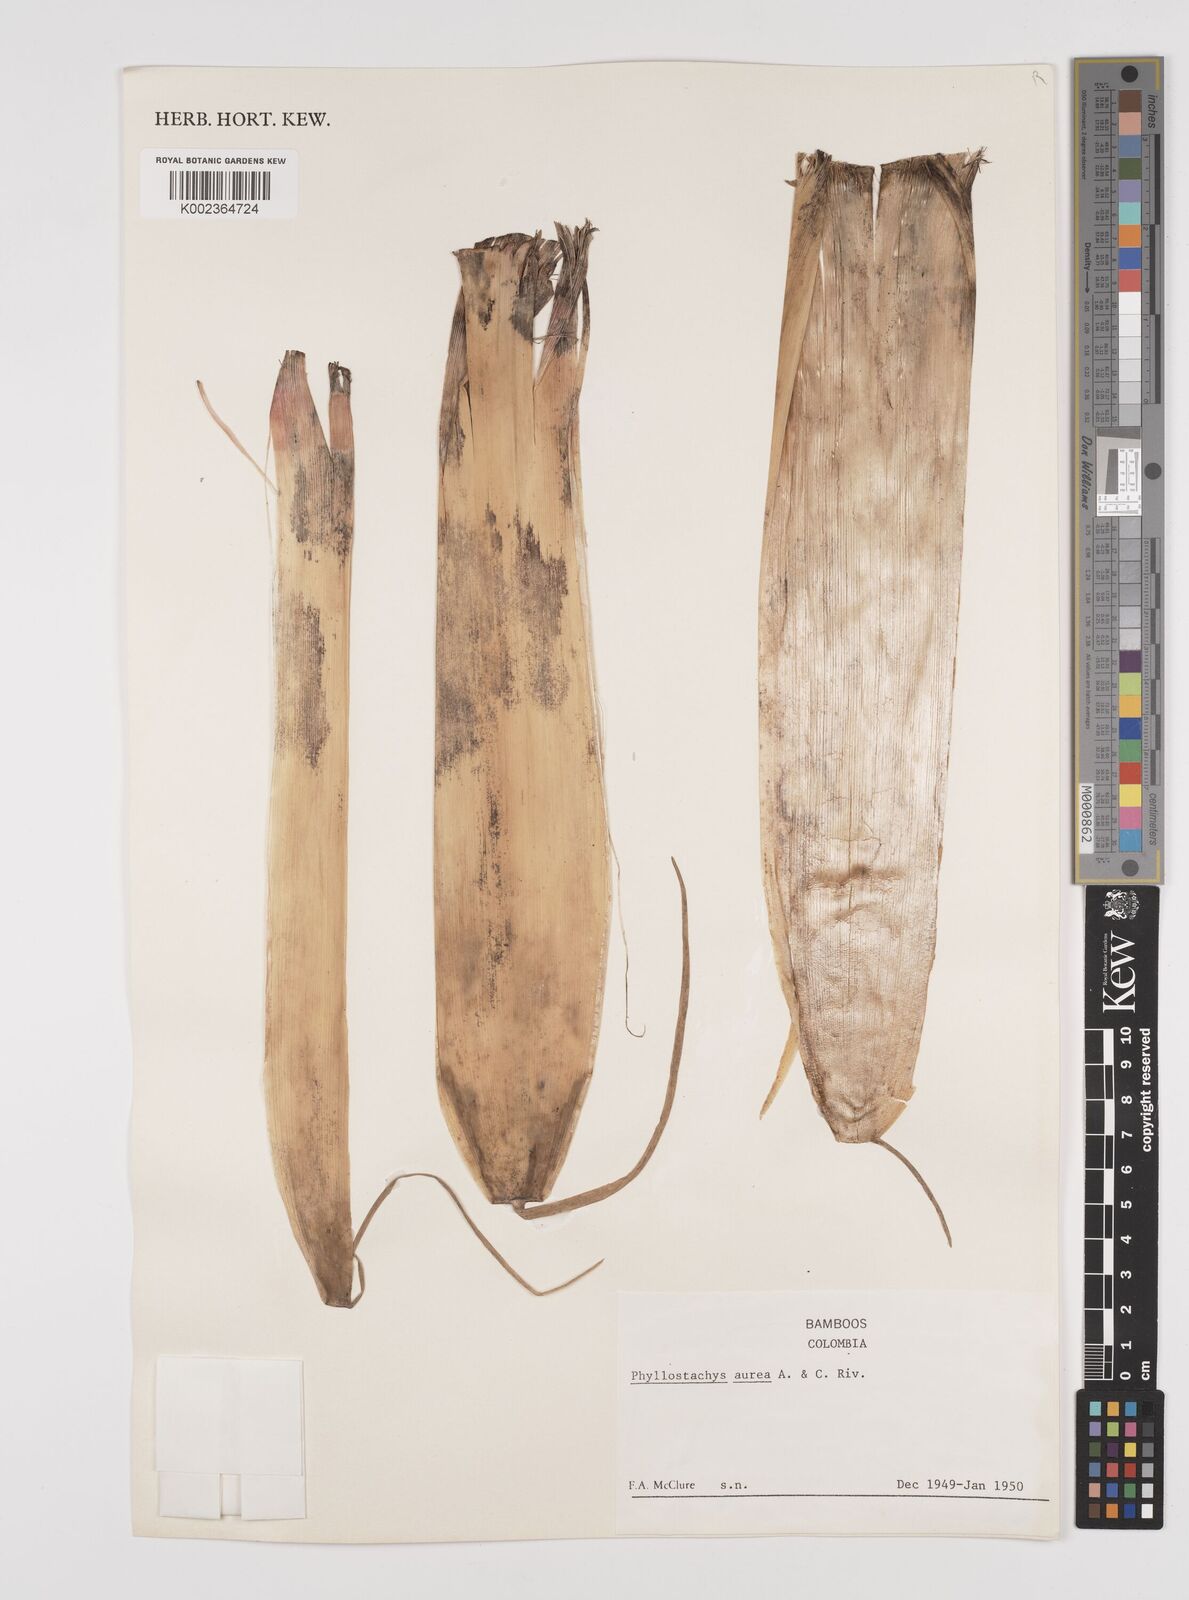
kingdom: Plantae
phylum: Tracheophyta
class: Liliopsida
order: Poales
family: Poaceae
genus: Phyllostachys
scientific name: Phyllostachys aurea
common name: Golden bamboo
